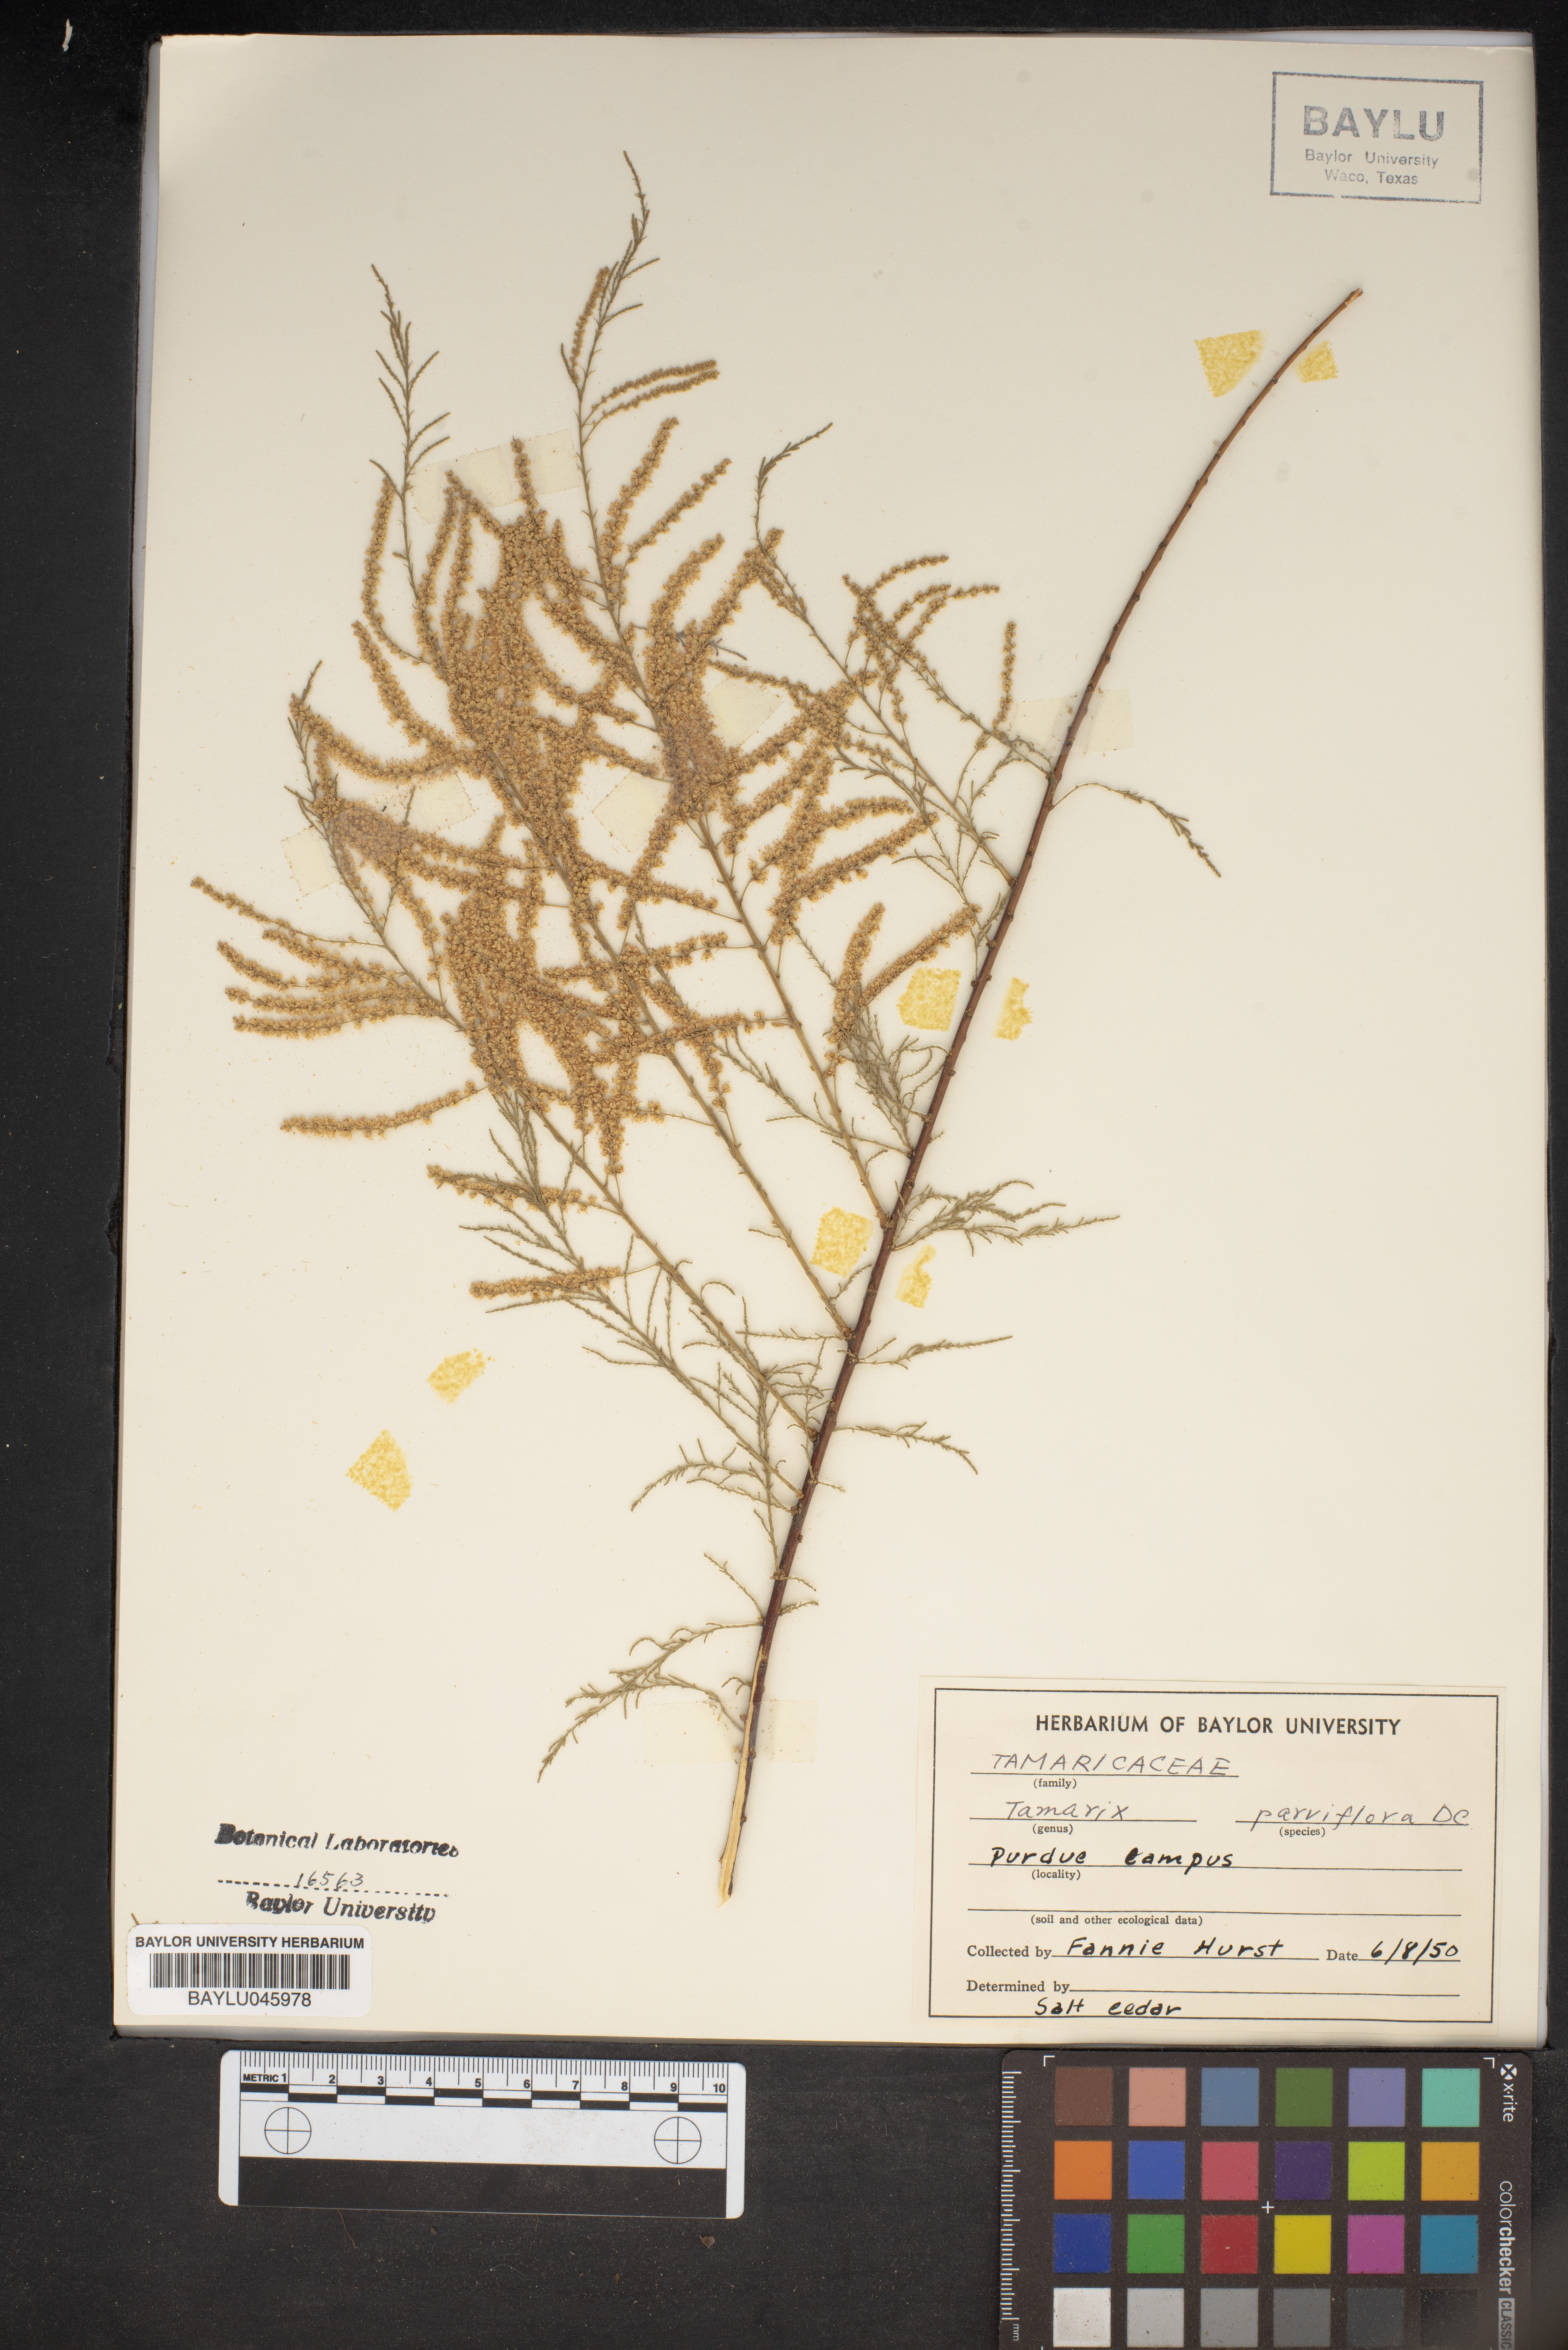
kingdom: Plantae
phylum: Tracheophyta
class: Magnoliopsida
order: Caryophyllales
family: Tamaricaceae
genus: Tamarix
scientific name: Tamarix parviflora
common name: Smallflower tamarisk
